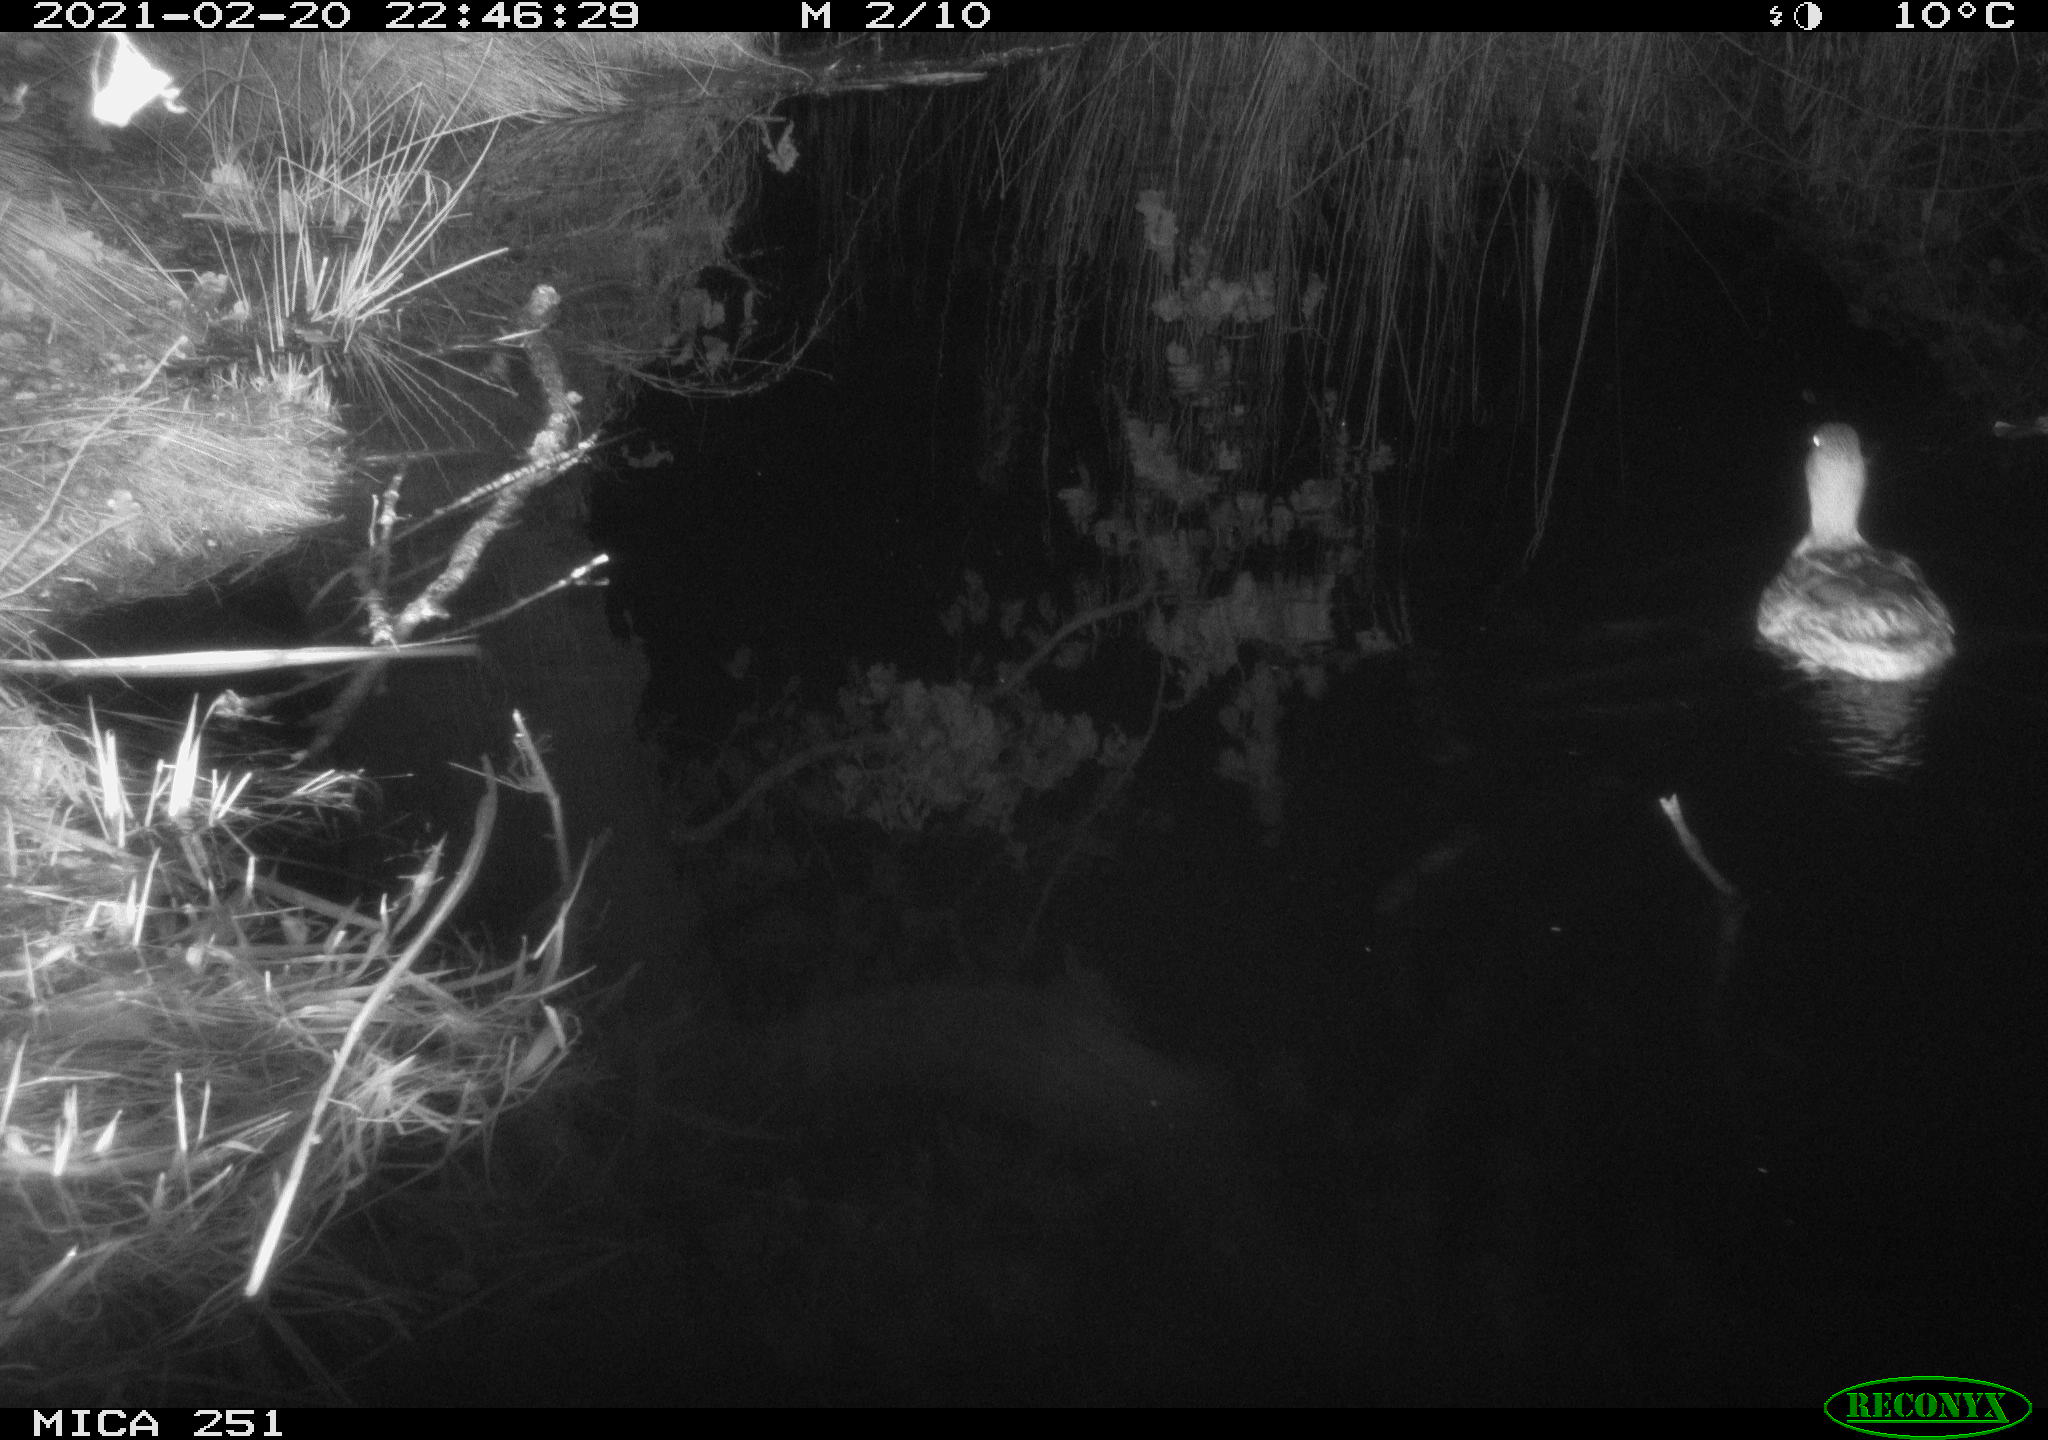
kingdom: Animalia
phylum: Chordata
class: Aves
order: Anseriformes
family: Anatidae
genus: Anas
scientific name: Anas platyrhynchos
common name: Mallard
